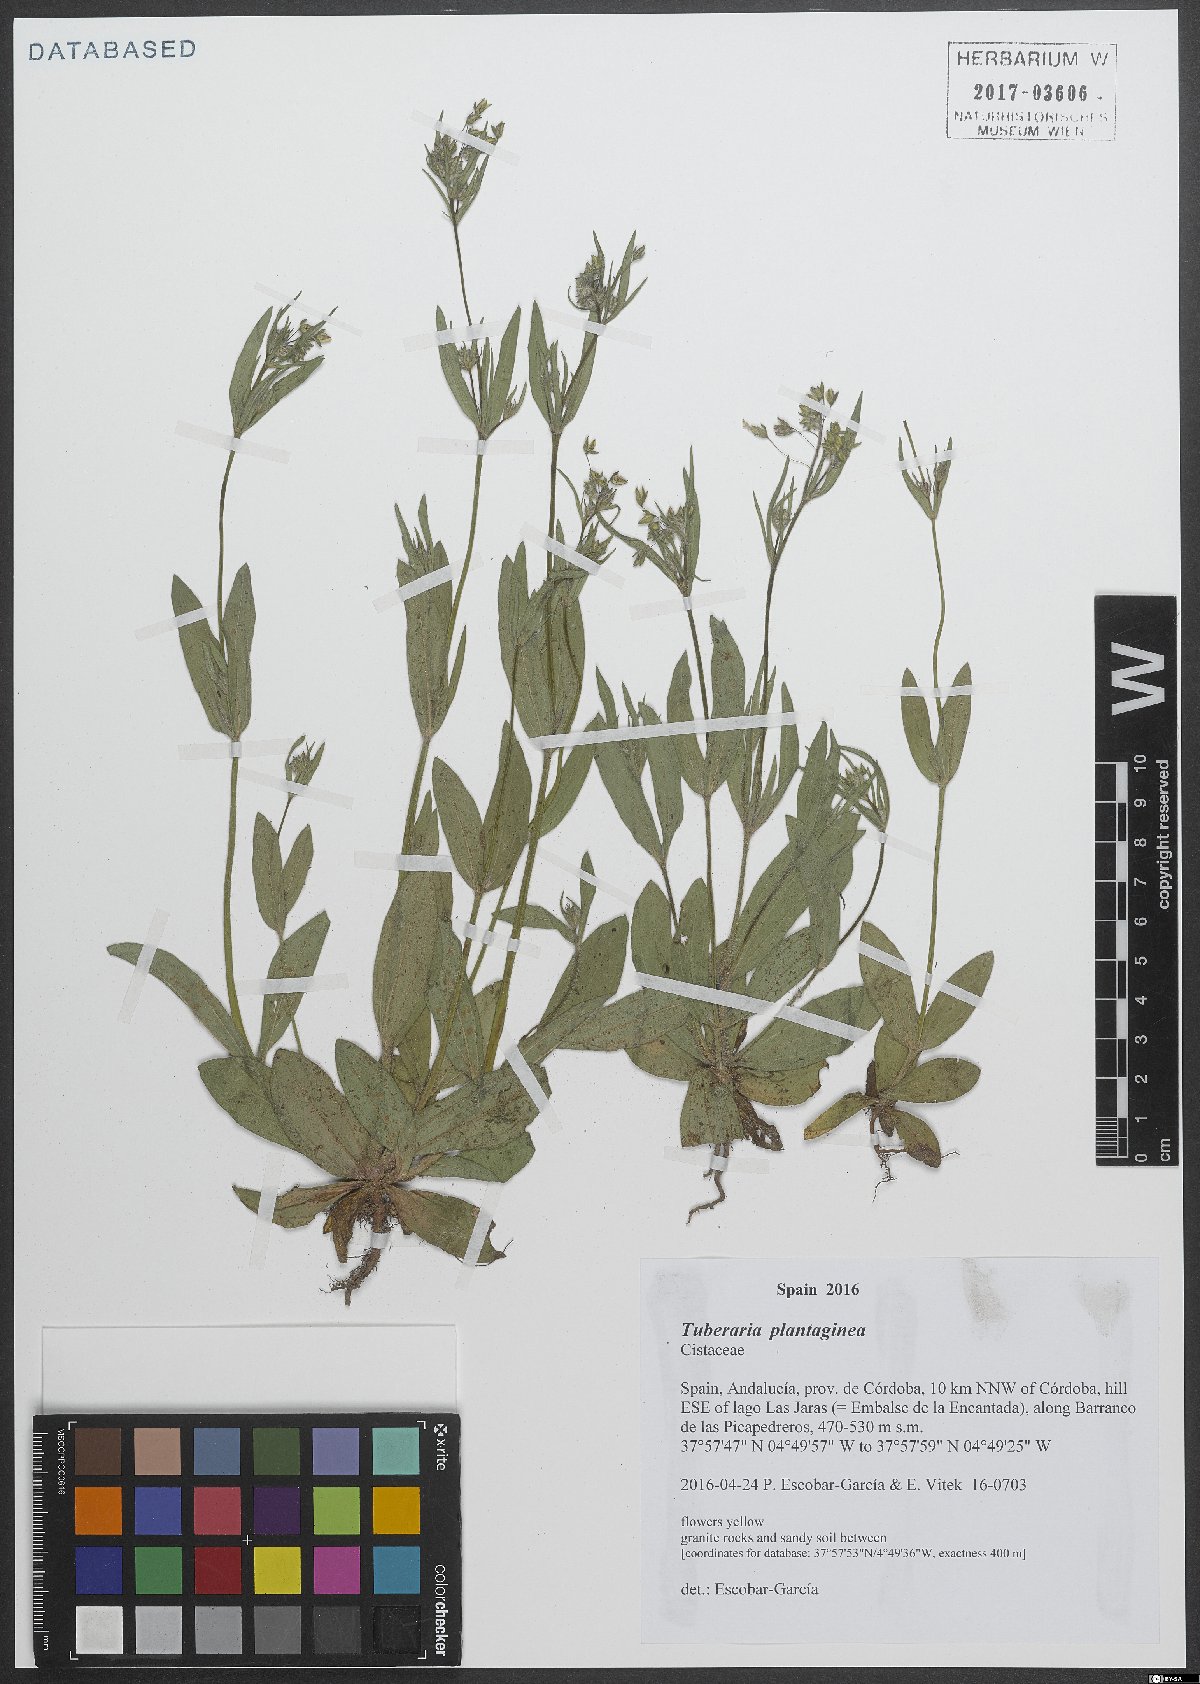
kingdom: Plantae
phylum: Tracheophyta
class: Magnoliopsida
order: Malvales
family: Cistaceae
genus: Tuberaria
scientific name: Tuberaria inconspicua
